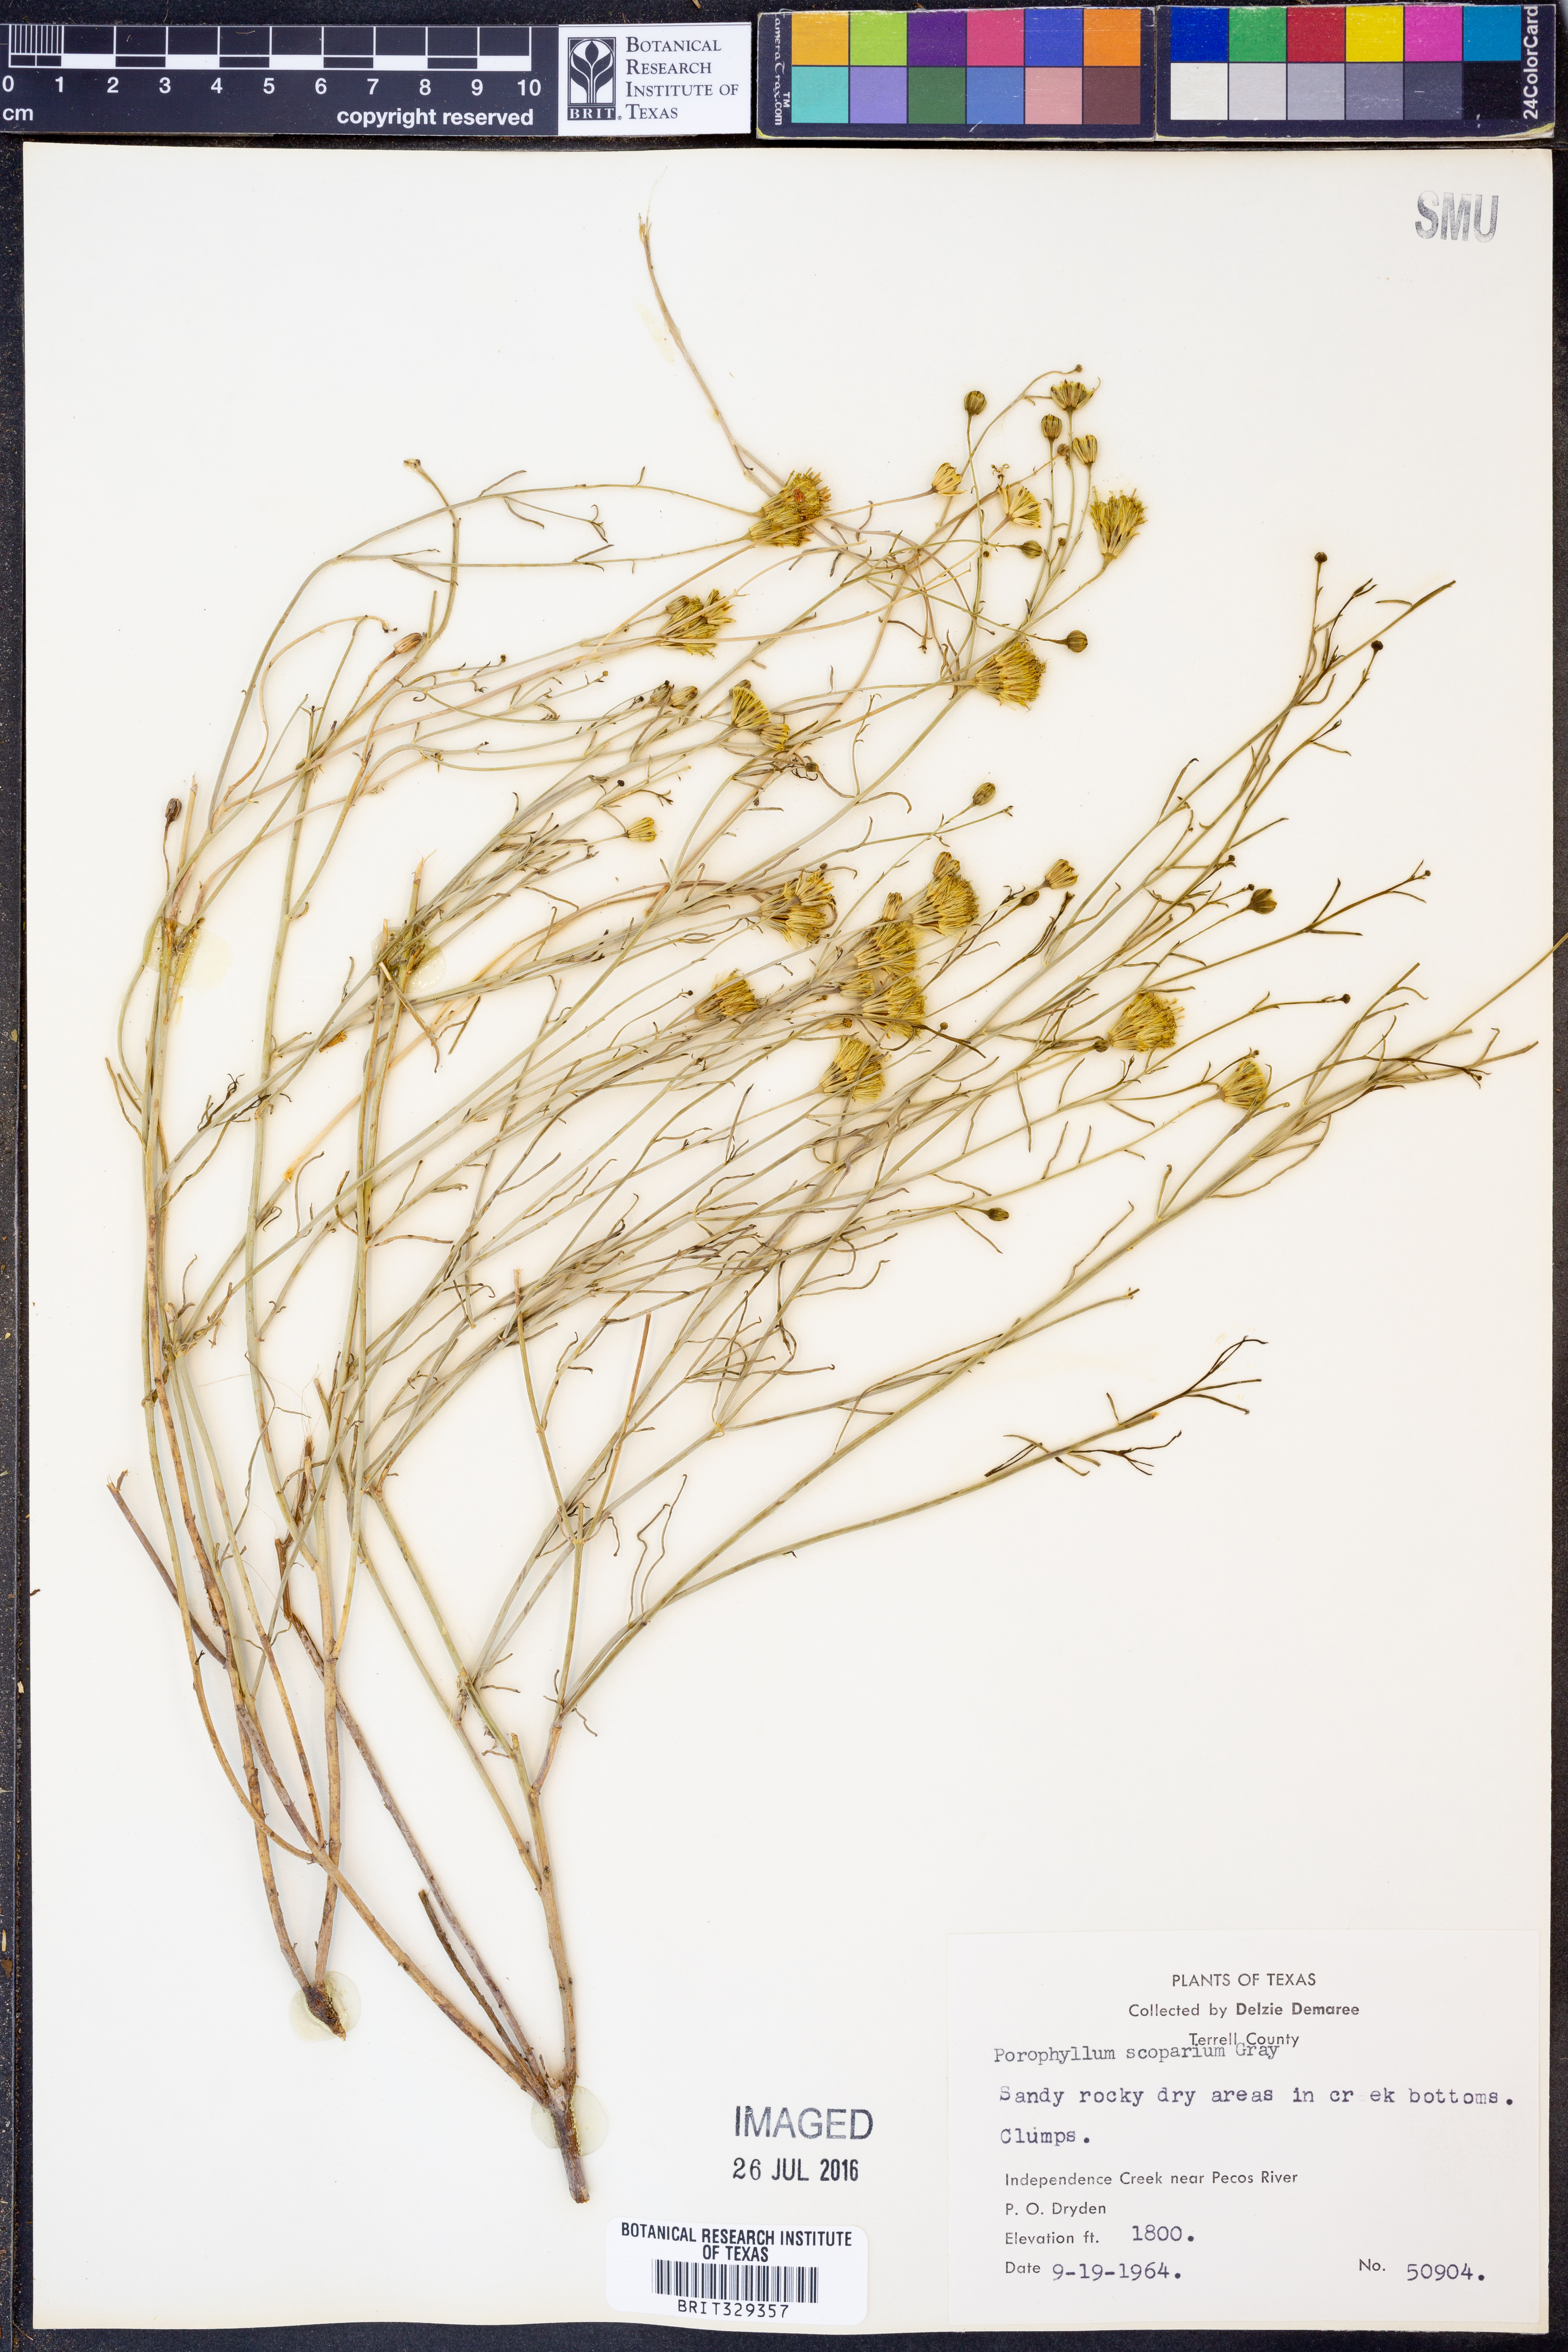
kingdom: Plantae
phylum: Tracheophyta
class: Magnoliopsida
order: Asterales
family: Asteraceae
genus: Porophyllum
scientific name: Porophyllum scoparium
